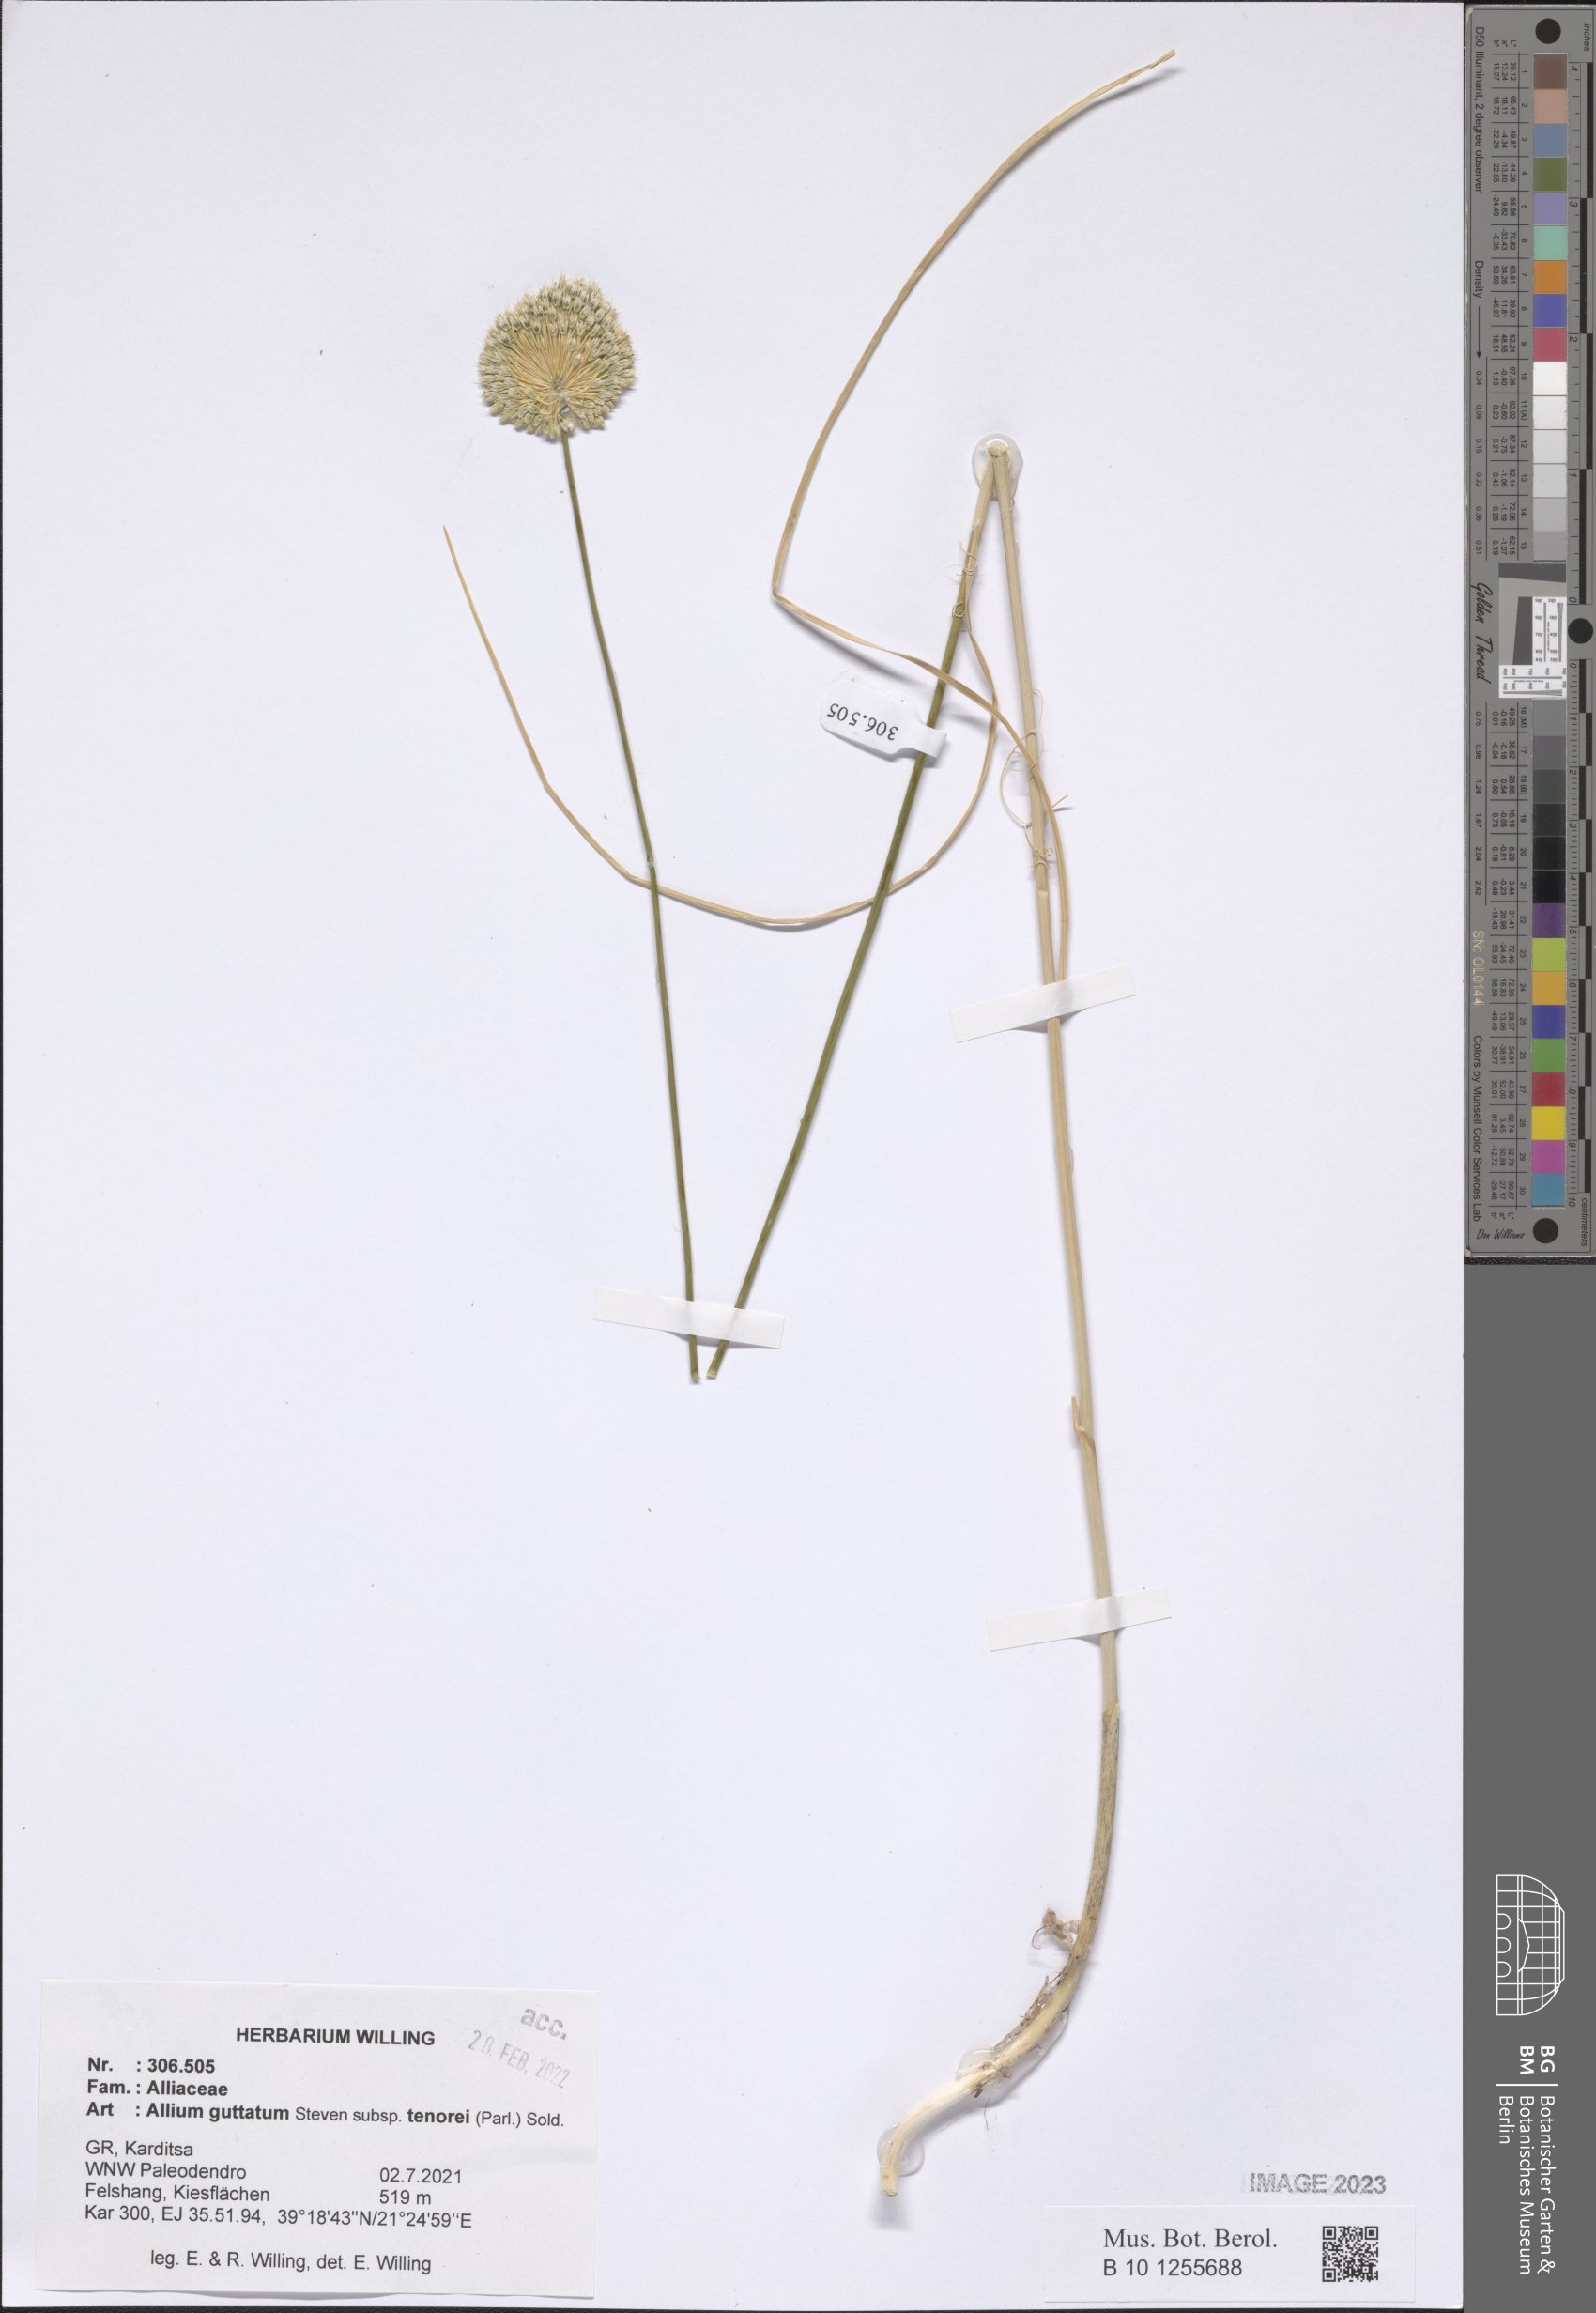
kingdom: Plantae
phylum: Tracheophyta
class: Liliopsida
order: Asparagales
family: Amaryllidaceae
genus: Allium
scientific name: Allium sardoum
